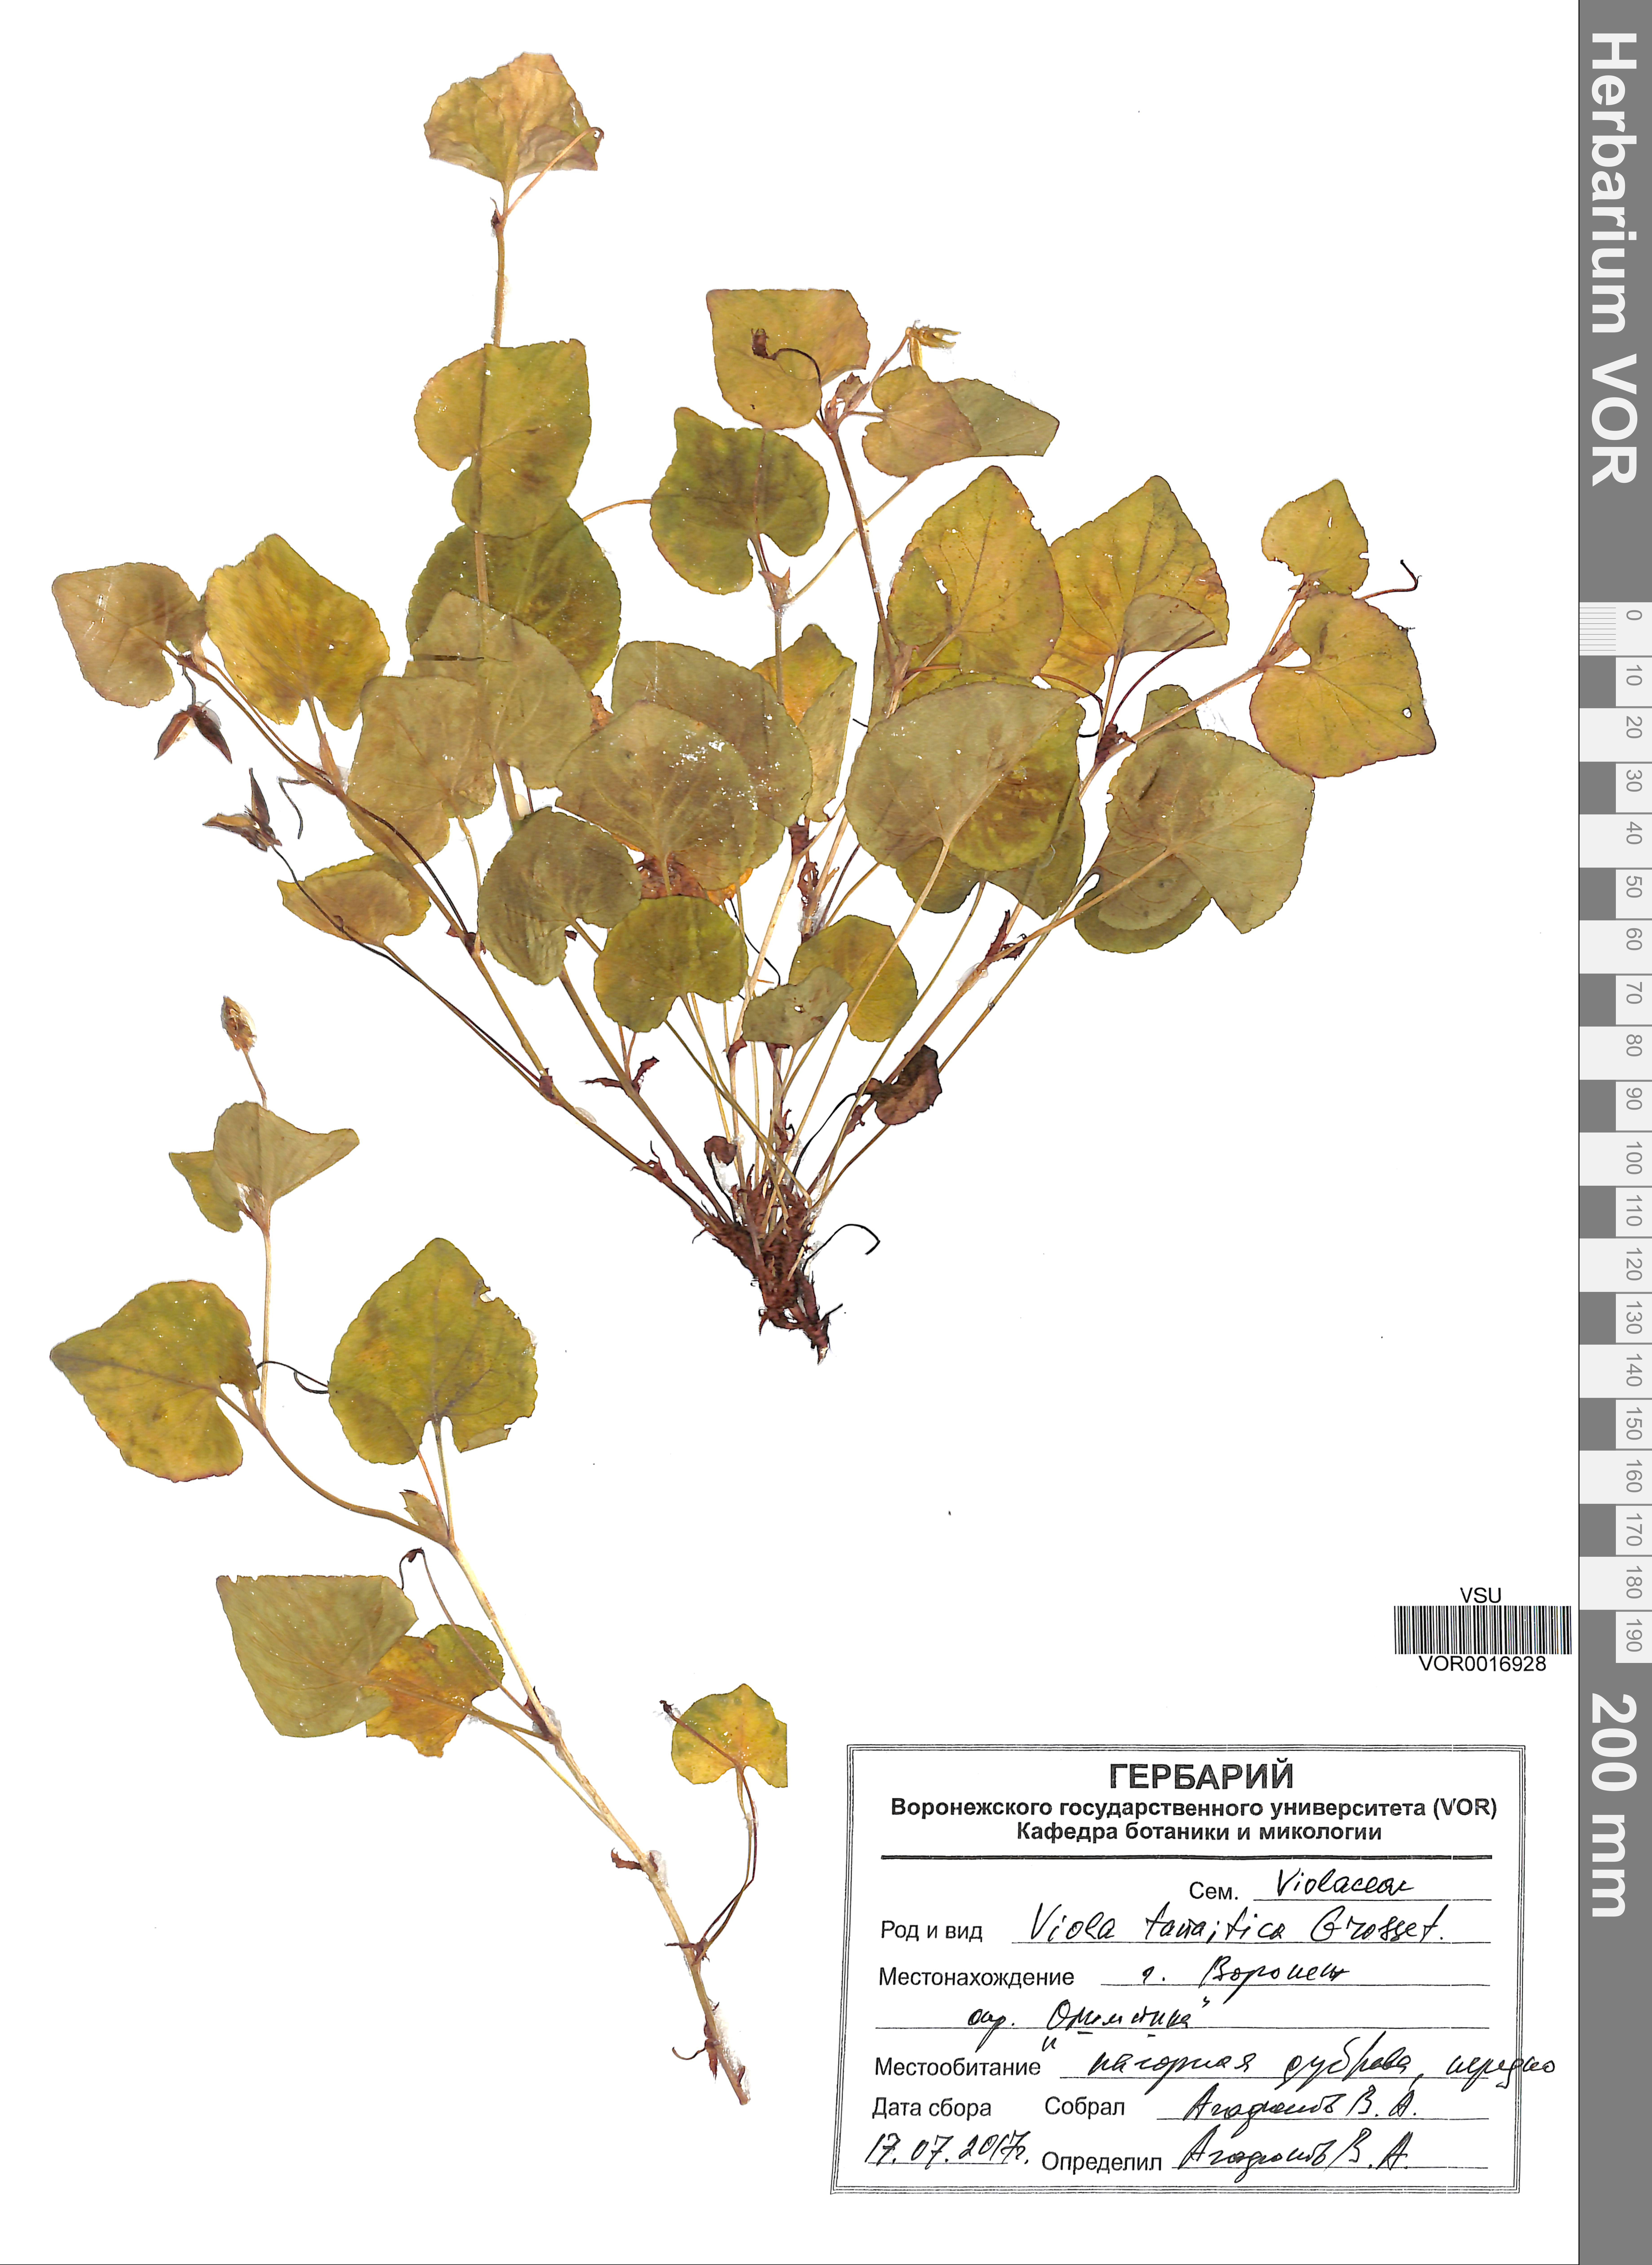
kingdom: Plantae
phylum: Tracheophyta
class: Magnoliopsida
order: Malpighiales
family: Violaceae
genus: Viola
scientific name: Viola tanaitica
